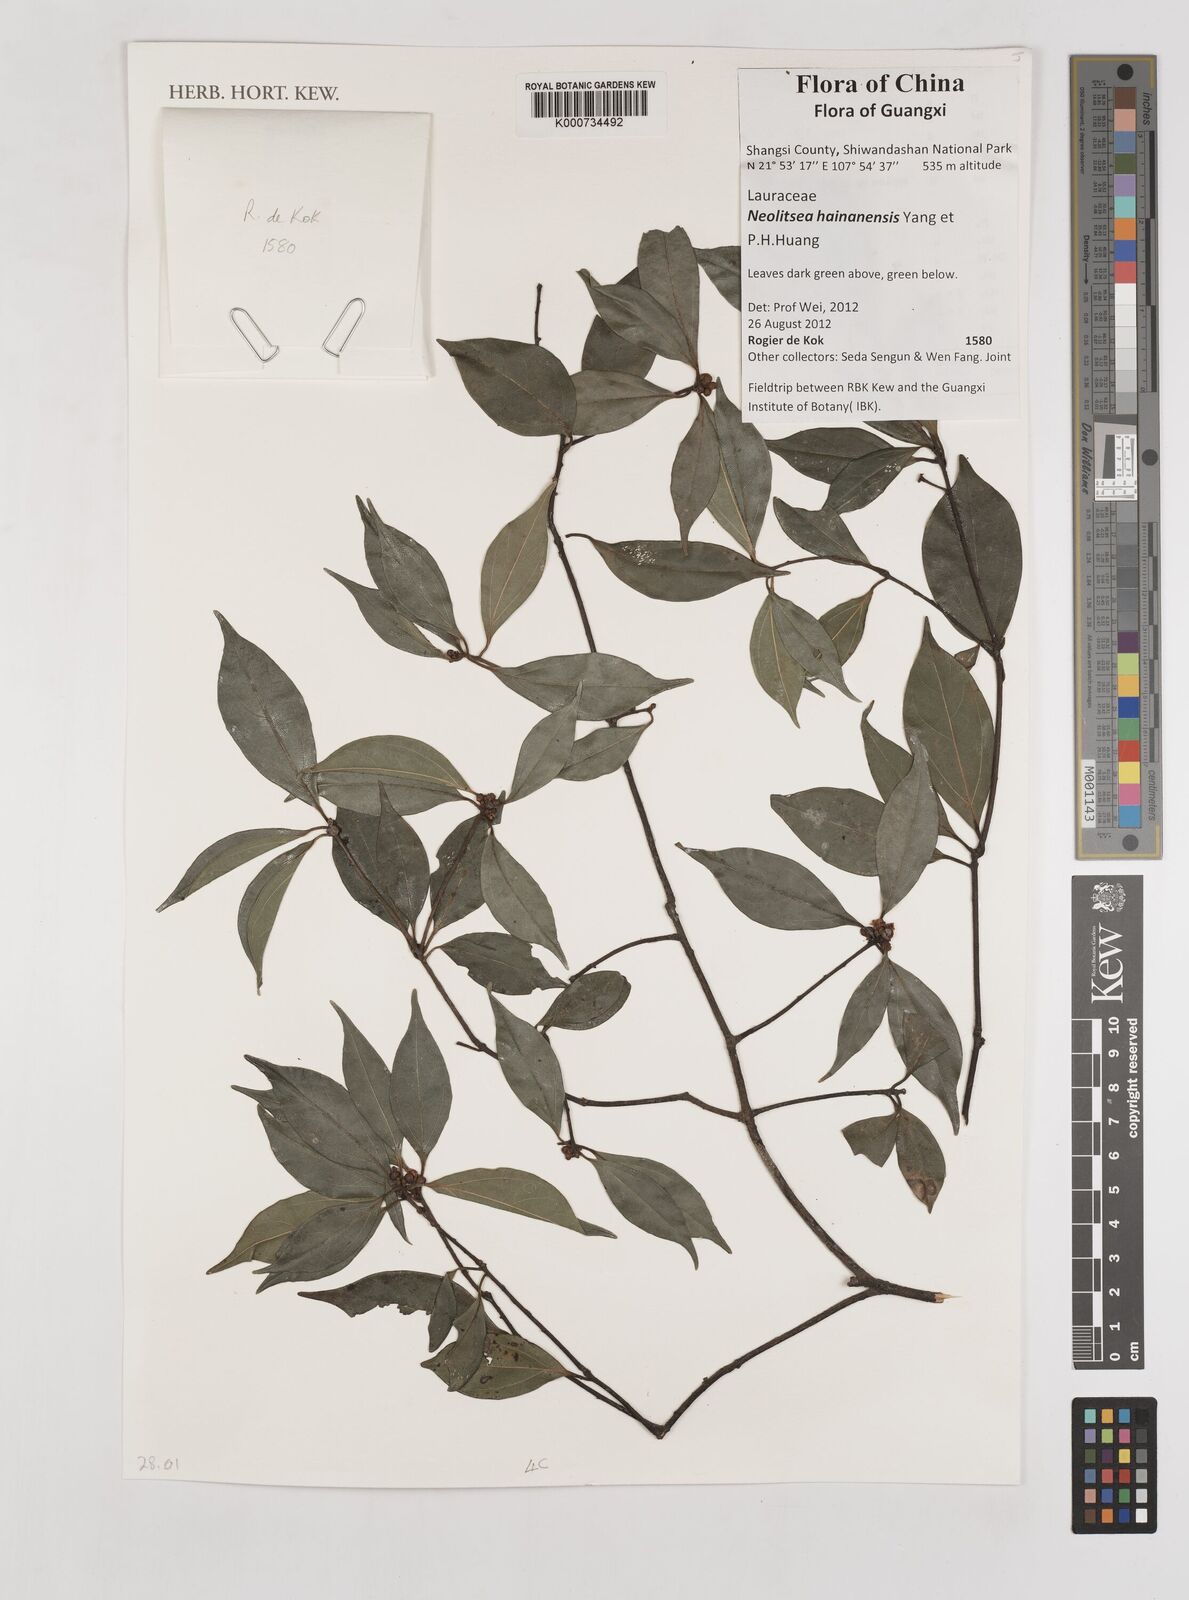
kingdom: Plantae
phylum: Tracheophyta
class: Magnoliopsida
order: Laurales
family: Lauraceae
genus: Neolitsea
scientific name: Neolitsea hainanensis
